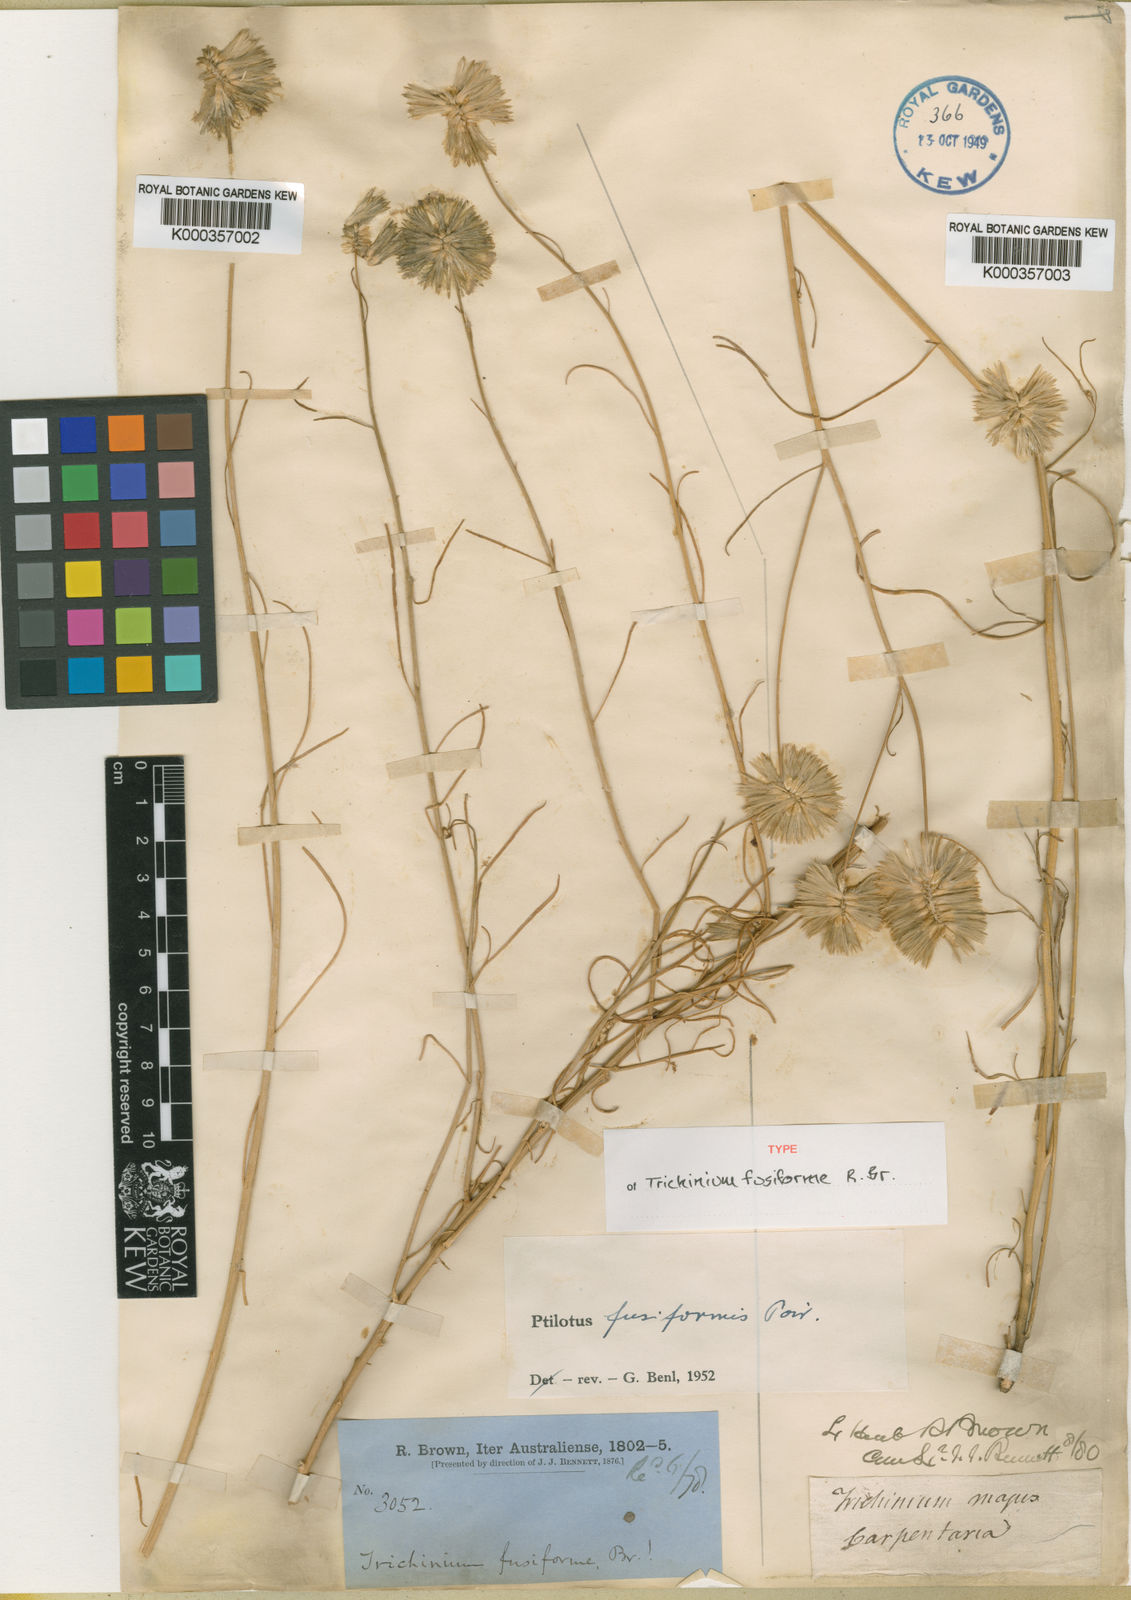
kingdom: Plantae
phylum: Tracheophyta
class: Magnoliopsida
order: Caryophyllales
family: Amaranthaceae
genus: Ptilotus
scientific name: Ptilotus fusiformis
